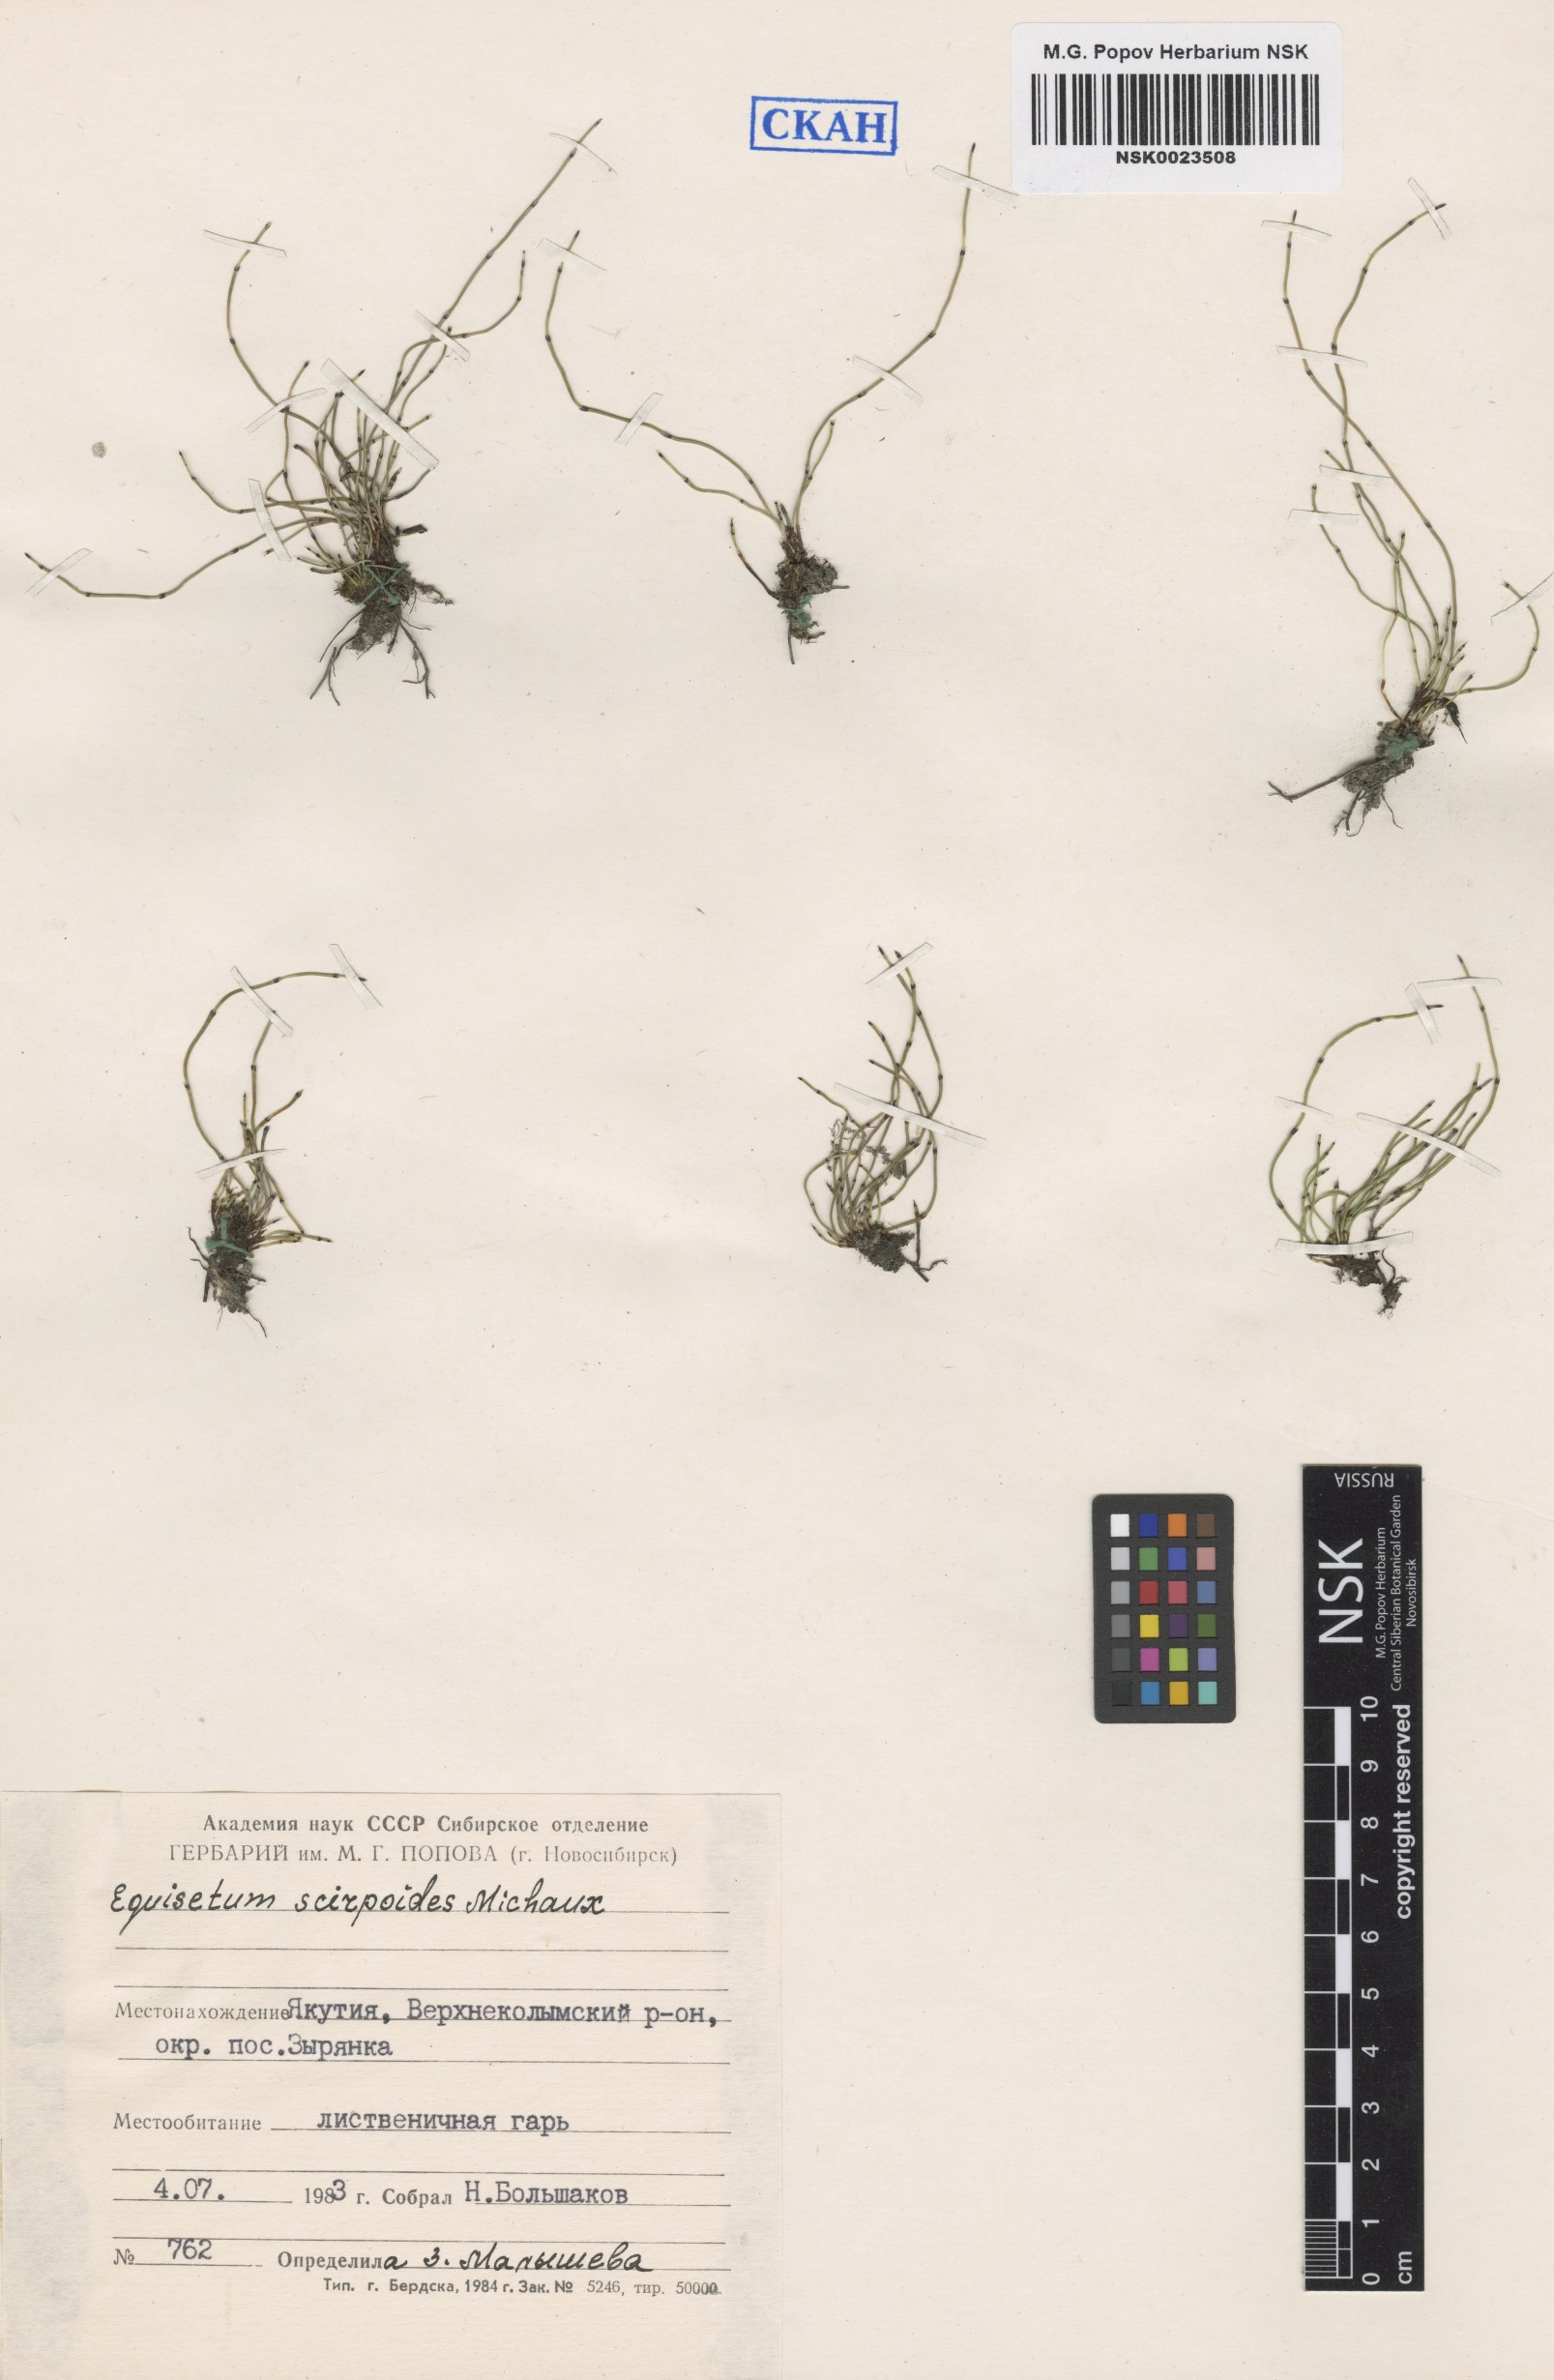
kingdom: Plantae
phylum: Tracheophyta
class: Polypodiopsida
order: Equisetales
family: Equisetaceae
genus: Equisetum
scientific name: Equisetum scirpoides
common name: Delicate horsetail
